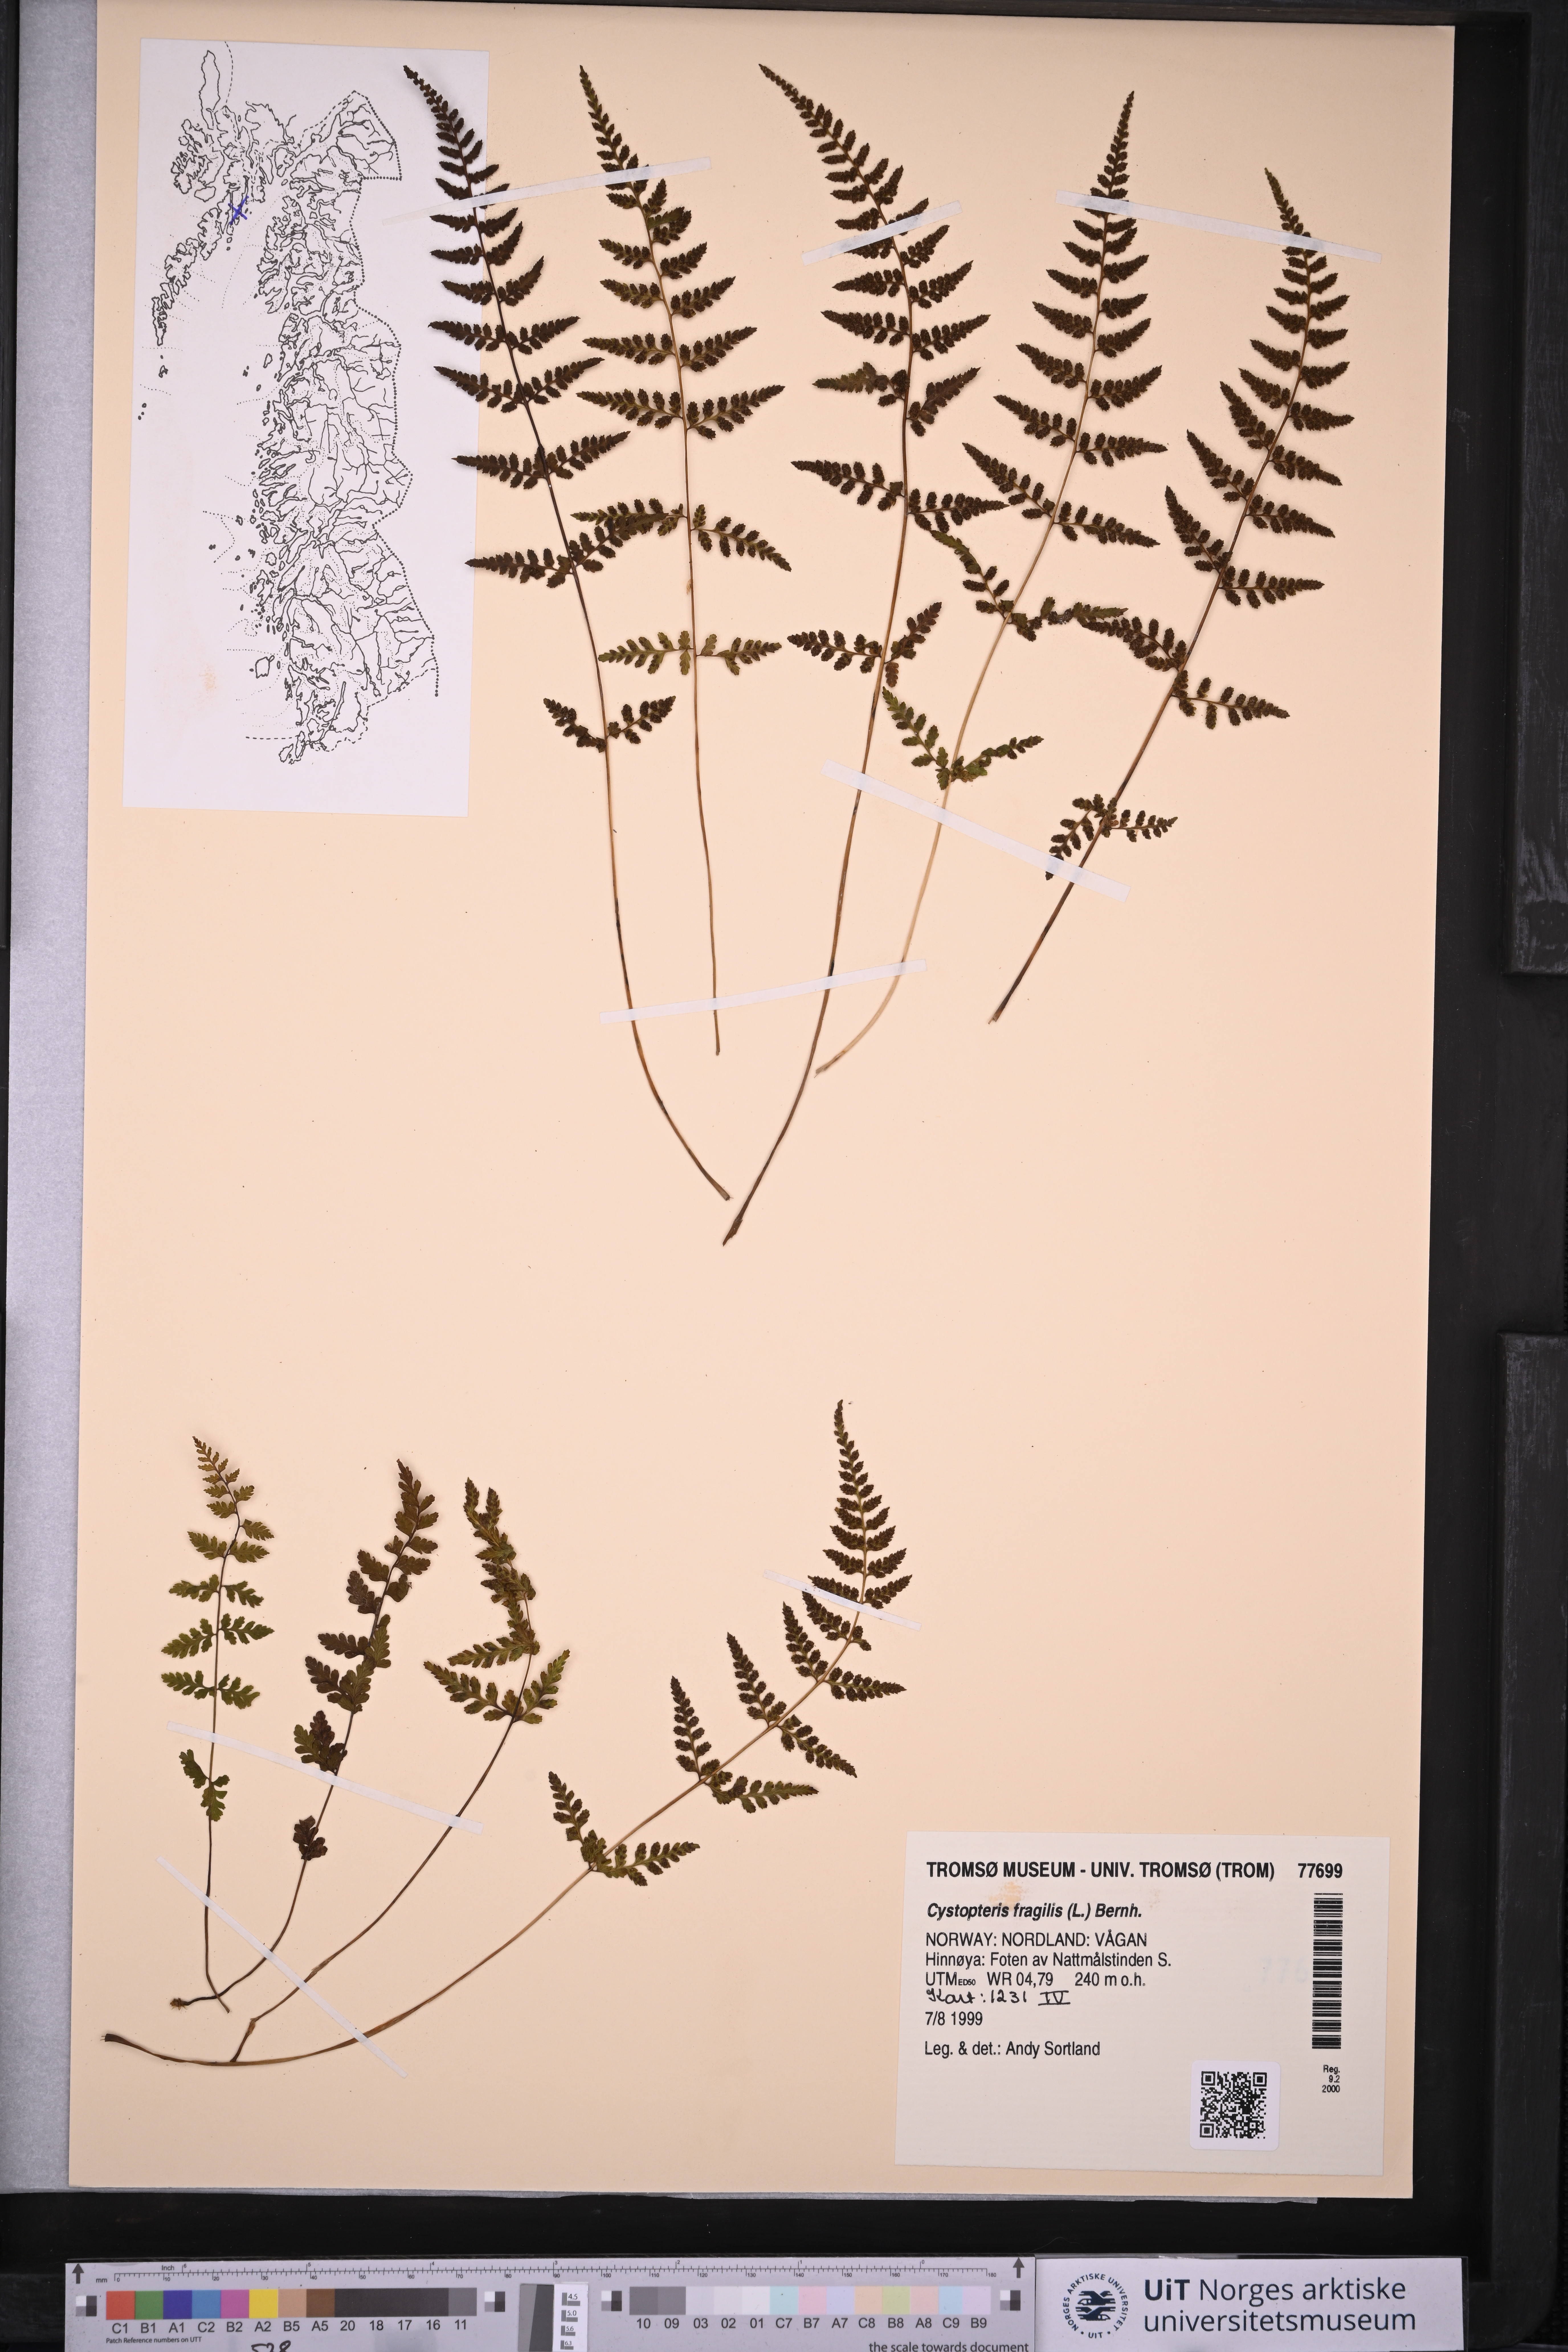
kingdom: Plantae
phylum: Tracheophyta
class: Polypodiopsida
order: Polypodiales
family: Cystopteridaceae
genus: Cystopteris
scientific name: Cystopteris fragilis
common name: Brittle bladder fern
